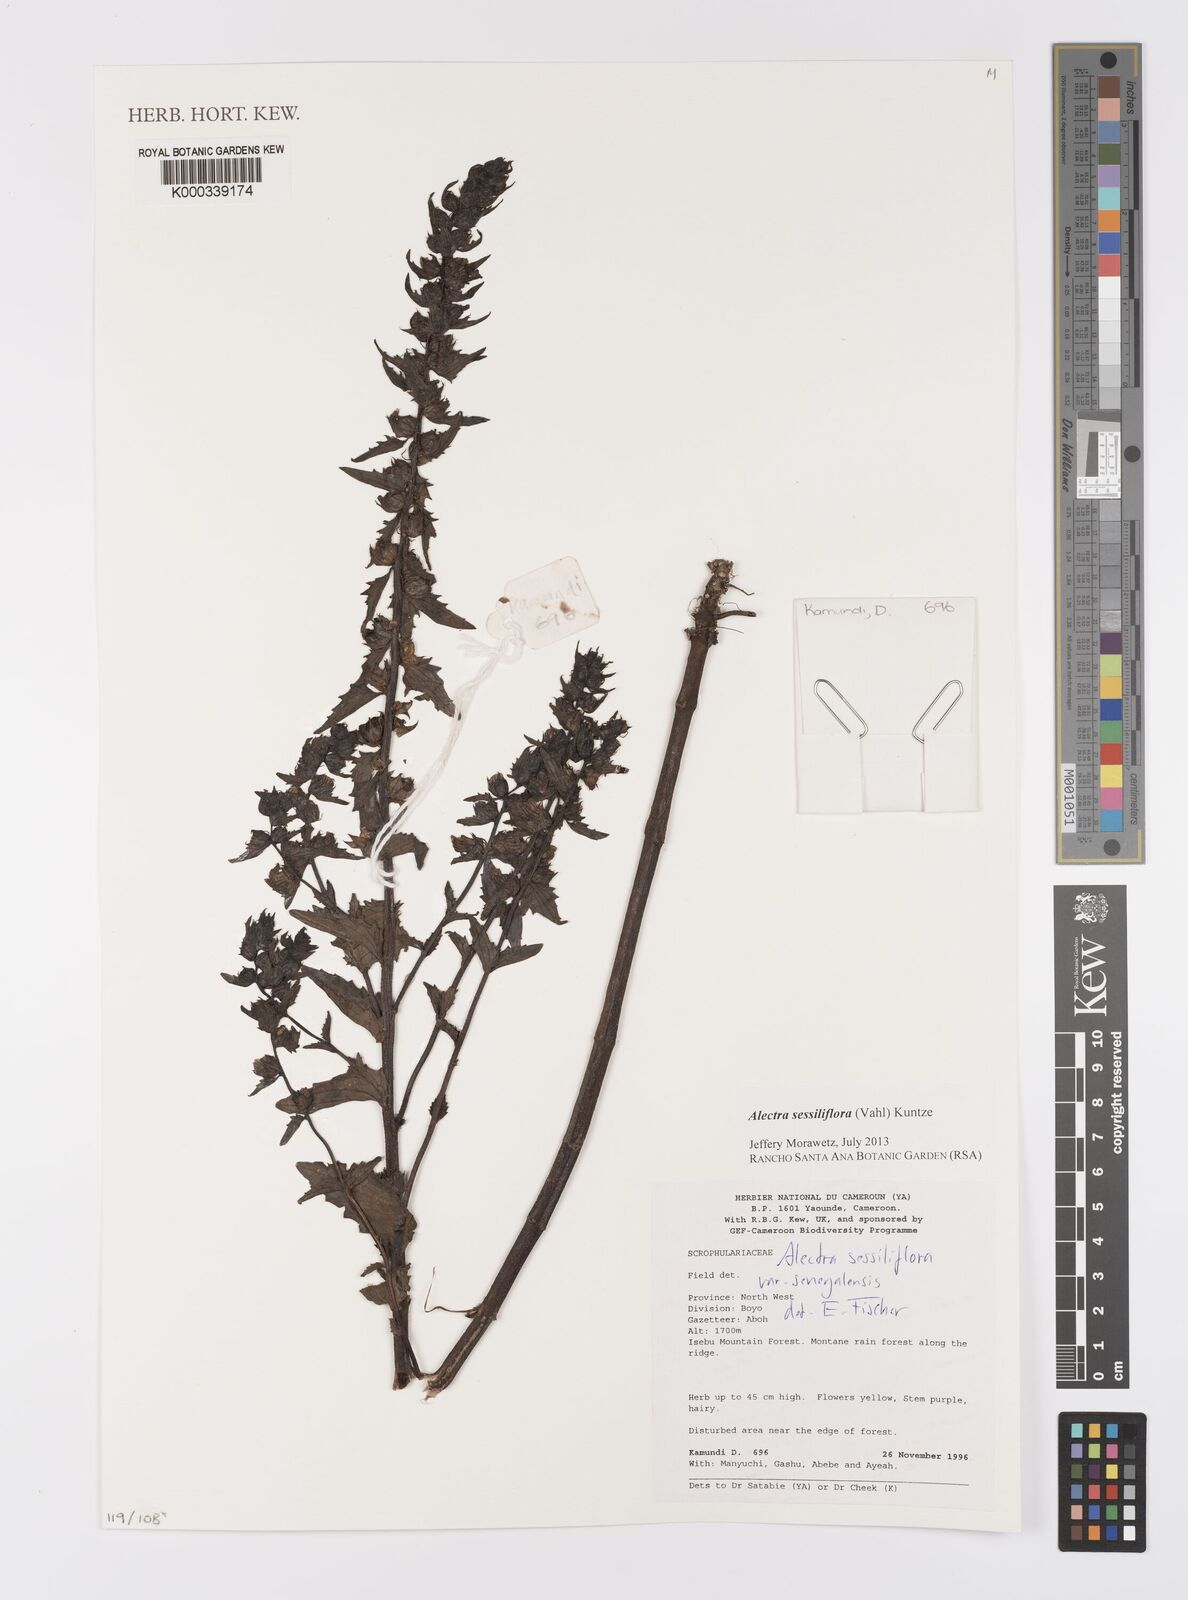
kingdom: Plantae
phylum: Tracheophyta
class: Magnoliopsida
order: Lamiales
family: Orobanchaceae
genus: Alectra
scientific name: Alectra sessiliflora
